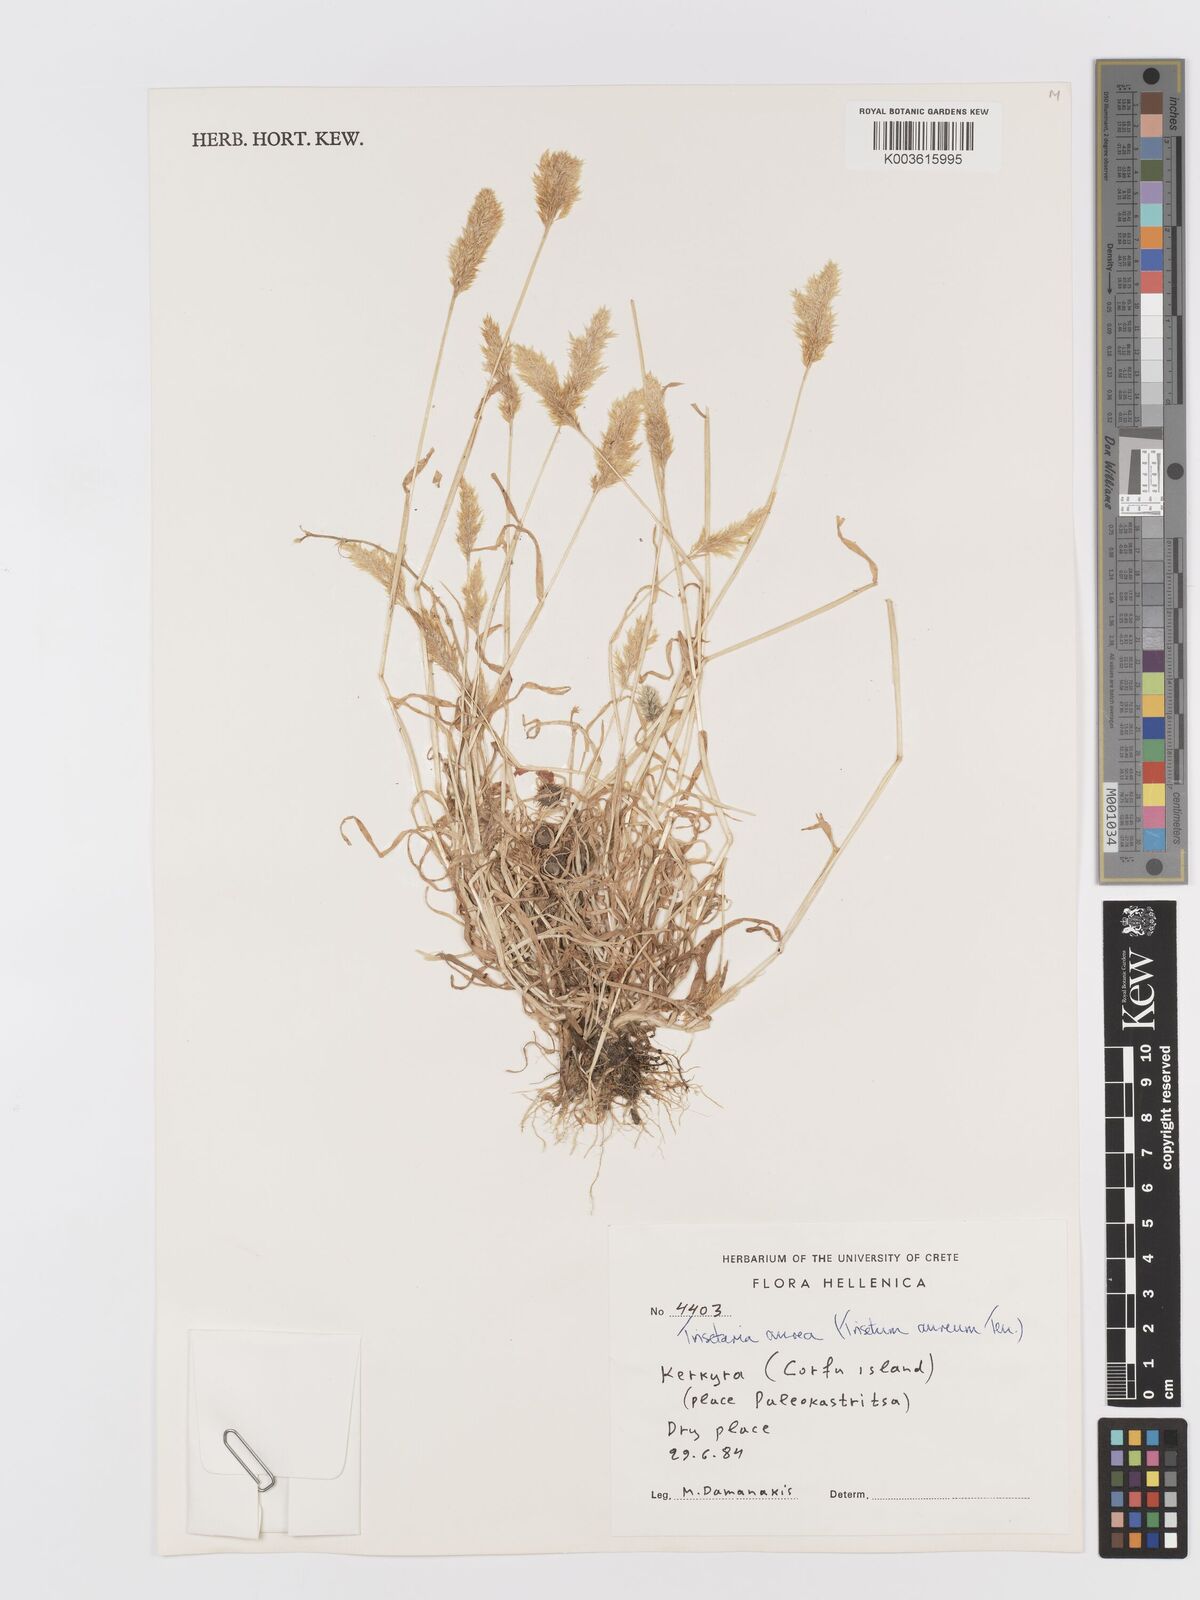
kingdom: Plantae
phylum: Tracheophyta
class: Liliopsida
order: Poales
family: Poaceae
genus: Trisetaria
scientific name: Trisetaria aurea
